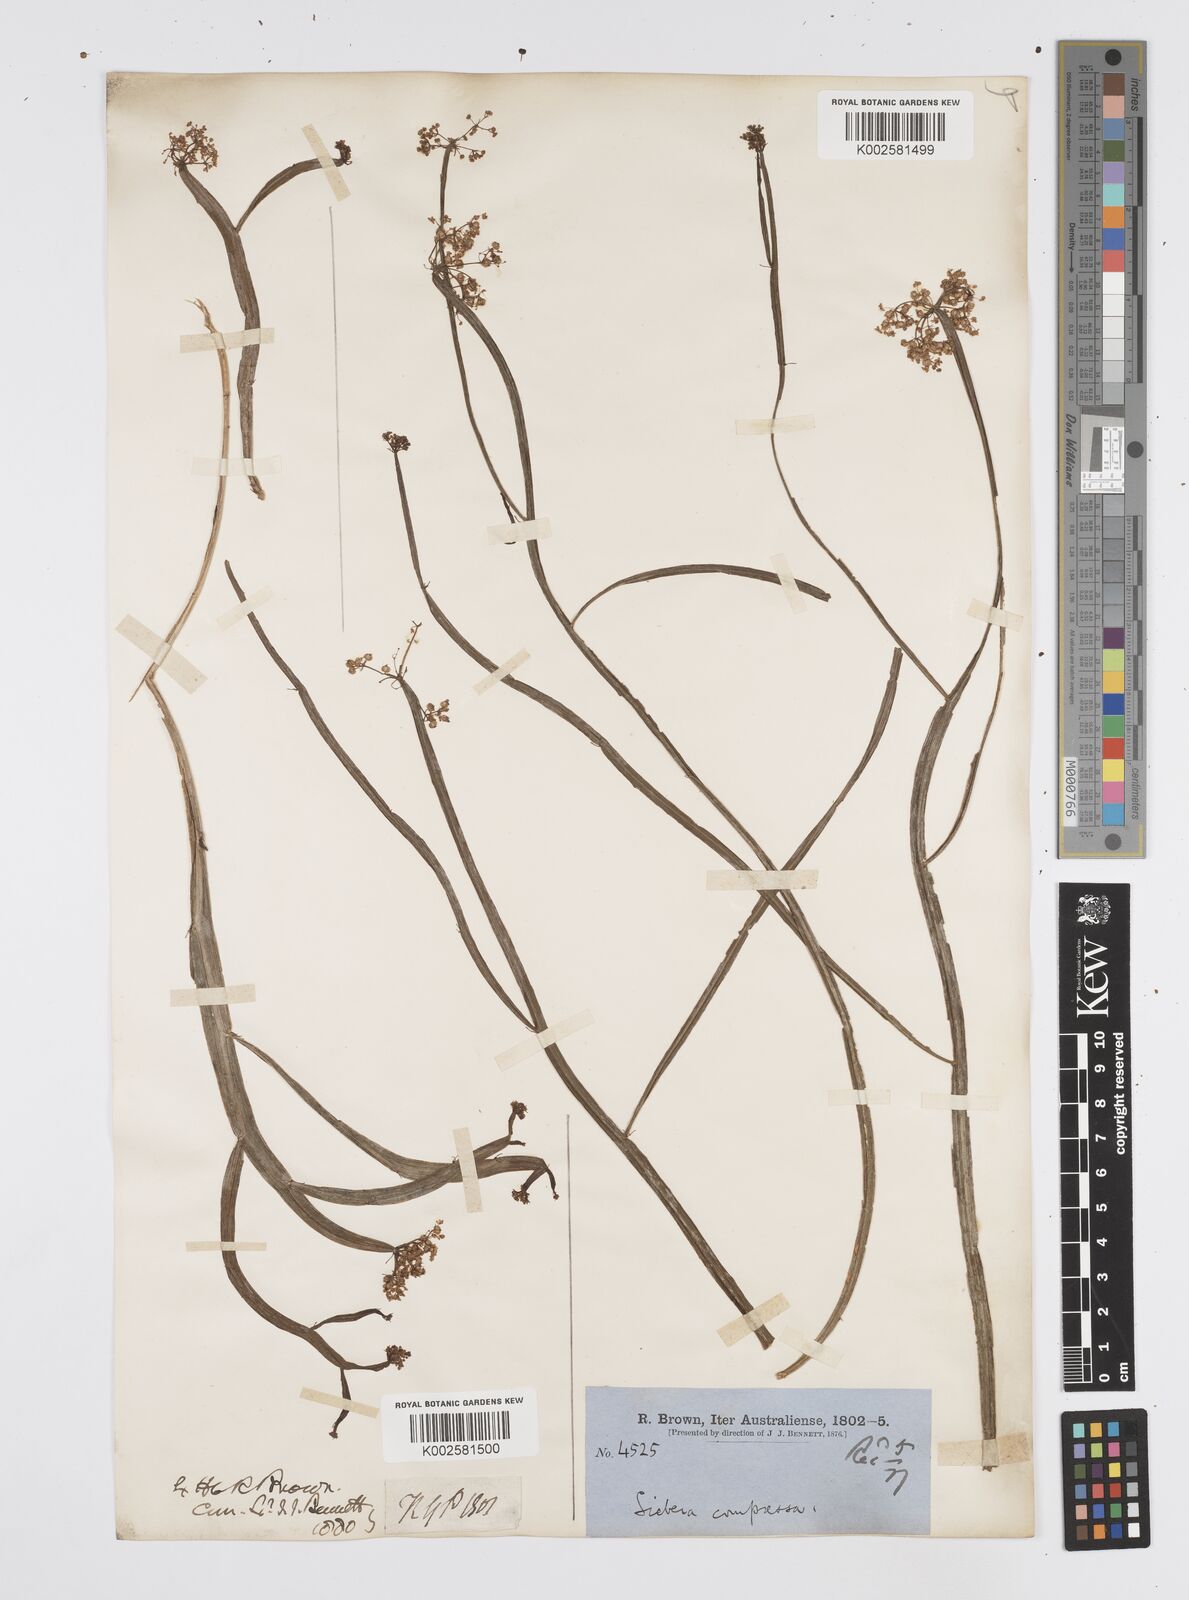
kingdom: Plantae
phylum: Tracheophyta
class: Magnoliopsida
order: Apiales
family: Apiaceae
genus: Centella
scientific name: Centella
